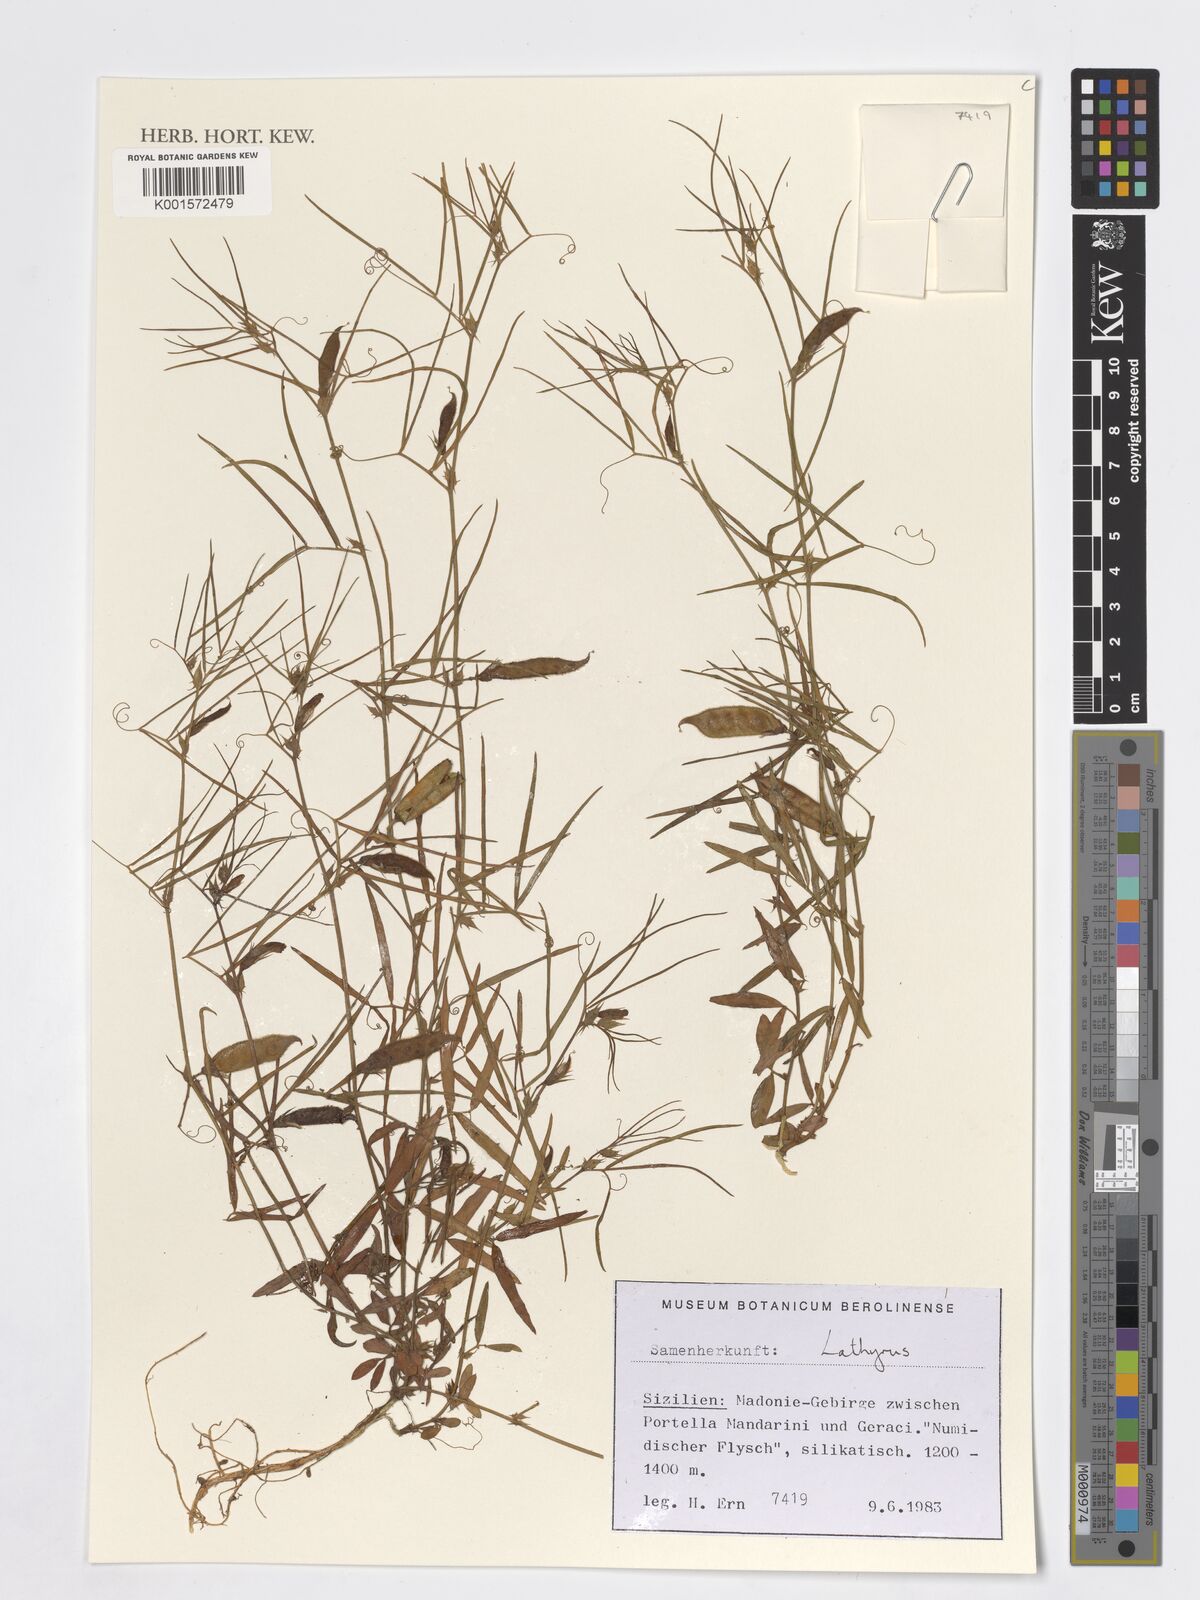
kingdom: Plantae
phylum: Tracheophyta
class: Magnoliopsida
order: Fabales
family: Fabaceae
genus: Lathyrus
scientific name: Lathyrus
